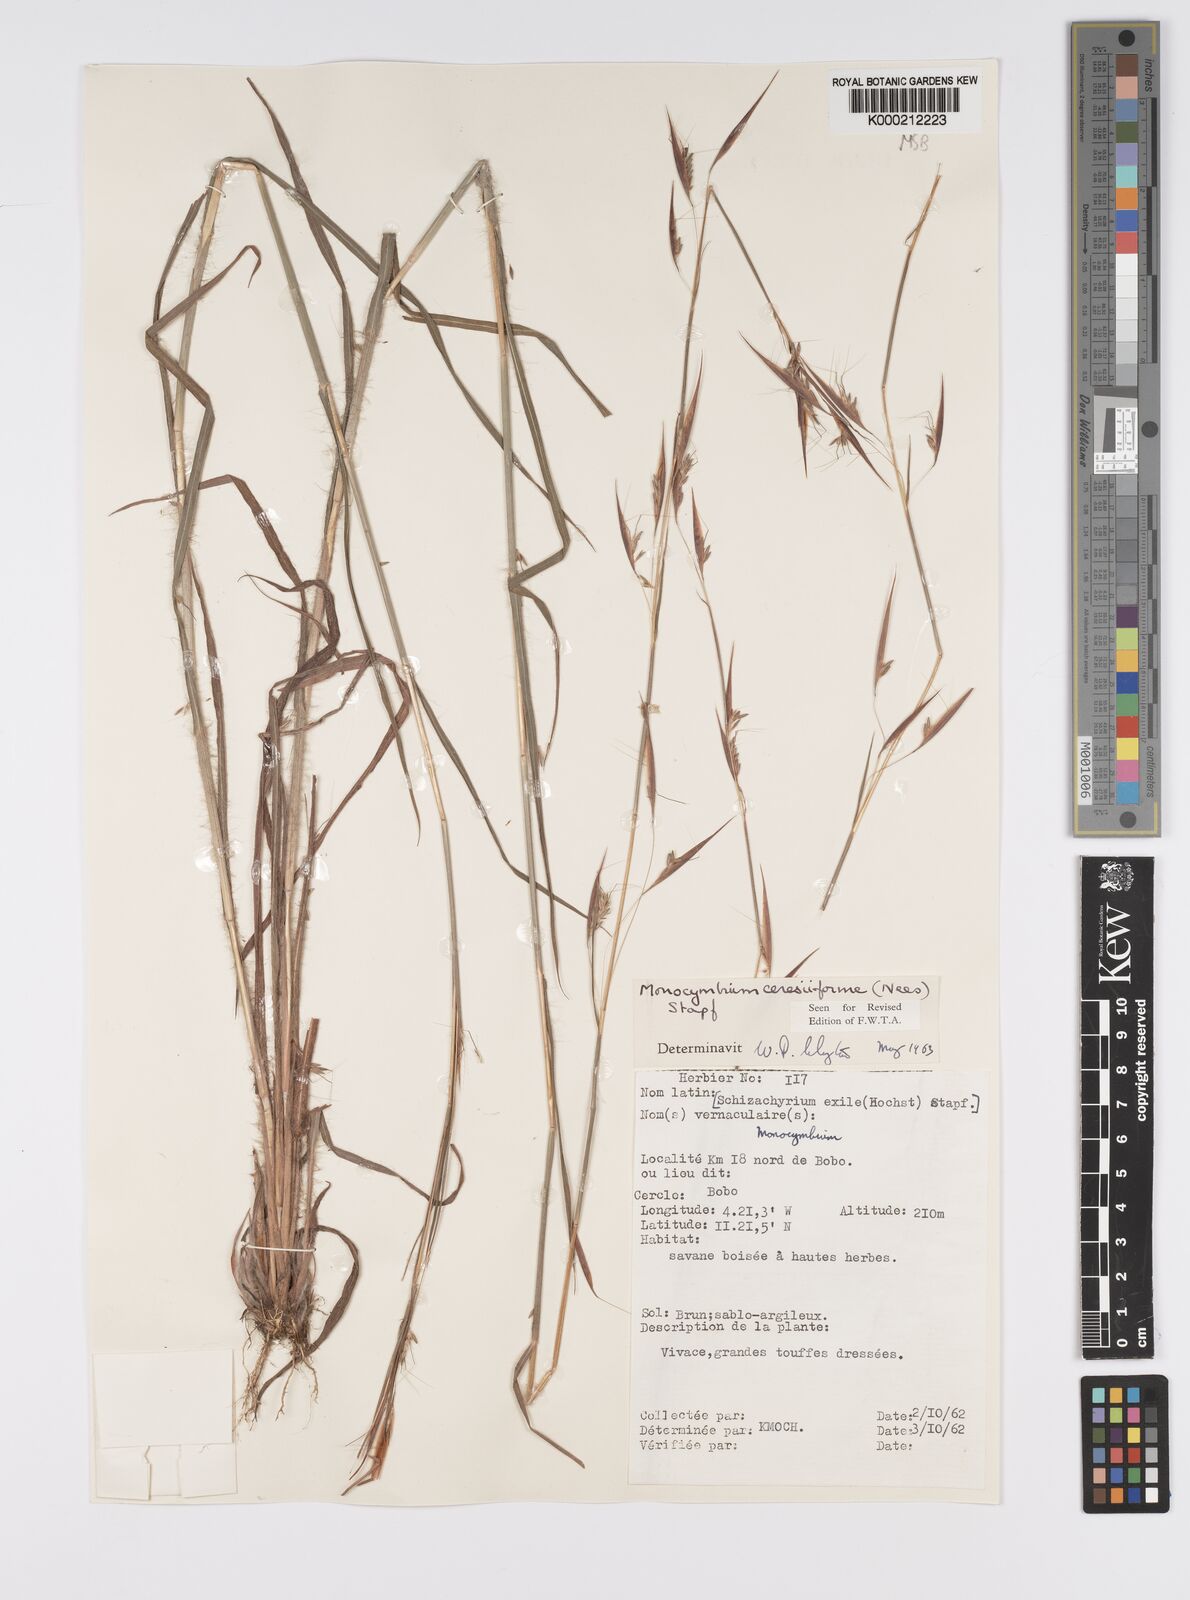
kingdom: Plantae
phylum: Tracheophyta
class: Liliopsida
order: Poales
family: Poaceae
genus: Monocymbium
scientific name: Monocymbium ceresiiforme
